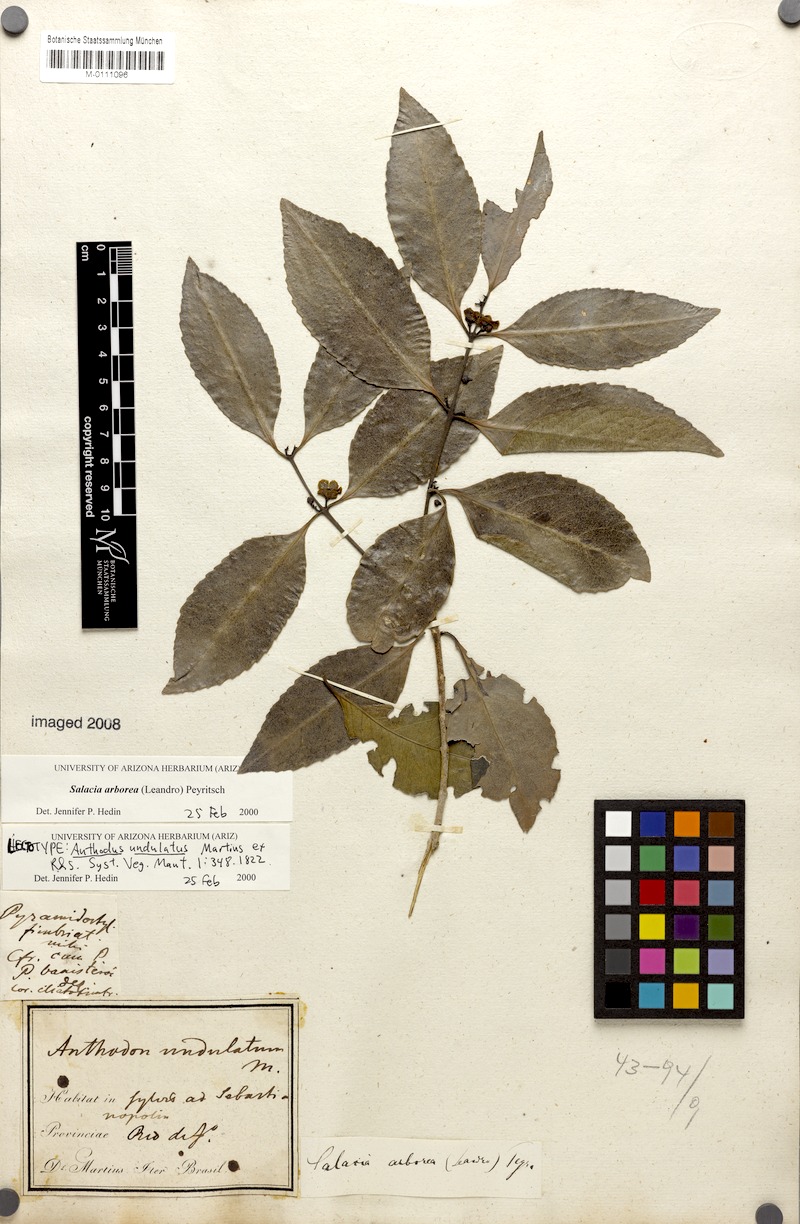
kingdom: Plantae
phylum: Tracheophyta
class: Magnoliopsida
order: Celastrales
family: Celastraceae
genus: Salacia
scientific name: Salacia arborea
